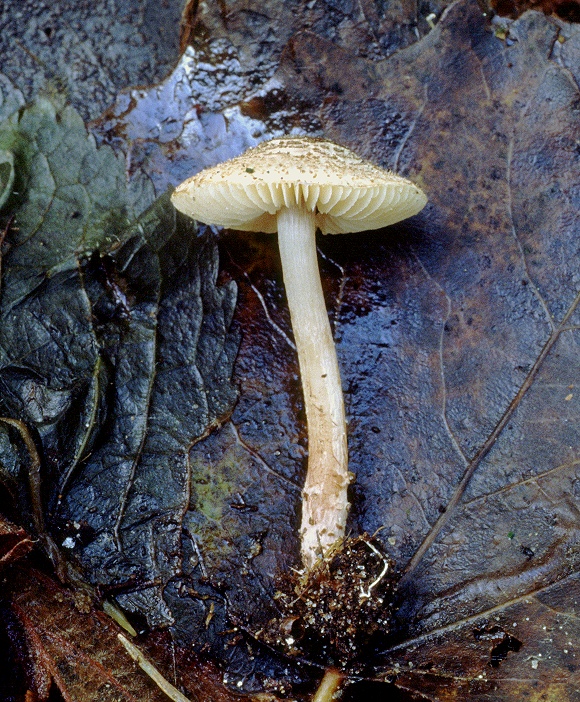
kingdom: Fungi
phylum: Basidiomycota
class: Agaricomycetes
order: Agaricales
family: Agaricaceae
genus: Lepiota
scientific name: Lepiota echinella
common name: finskællet parasolhat
